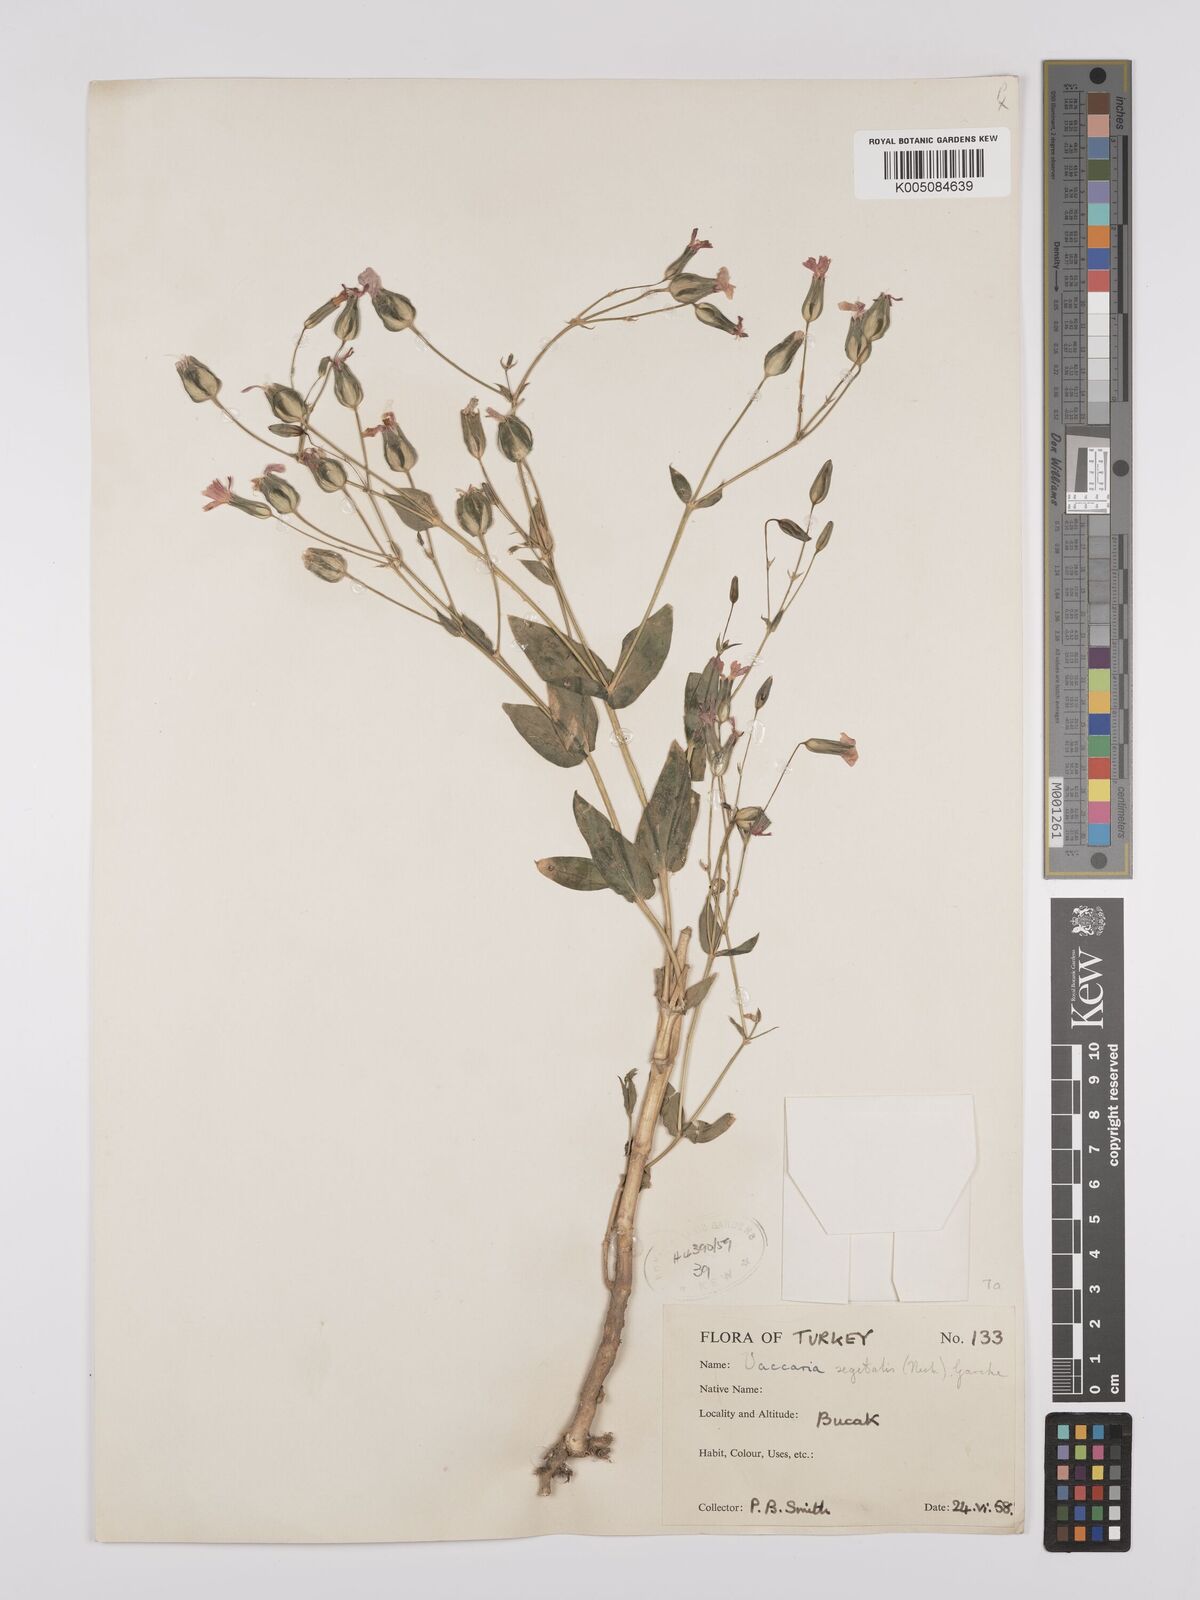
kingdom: Plantae
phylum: Tracheophyta
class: Magnoliopsida
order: Caryophyllales
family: Caryophyllaceae
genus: Gypsophila
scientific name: Gypsophila vaccaria
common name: Cow soapwort
